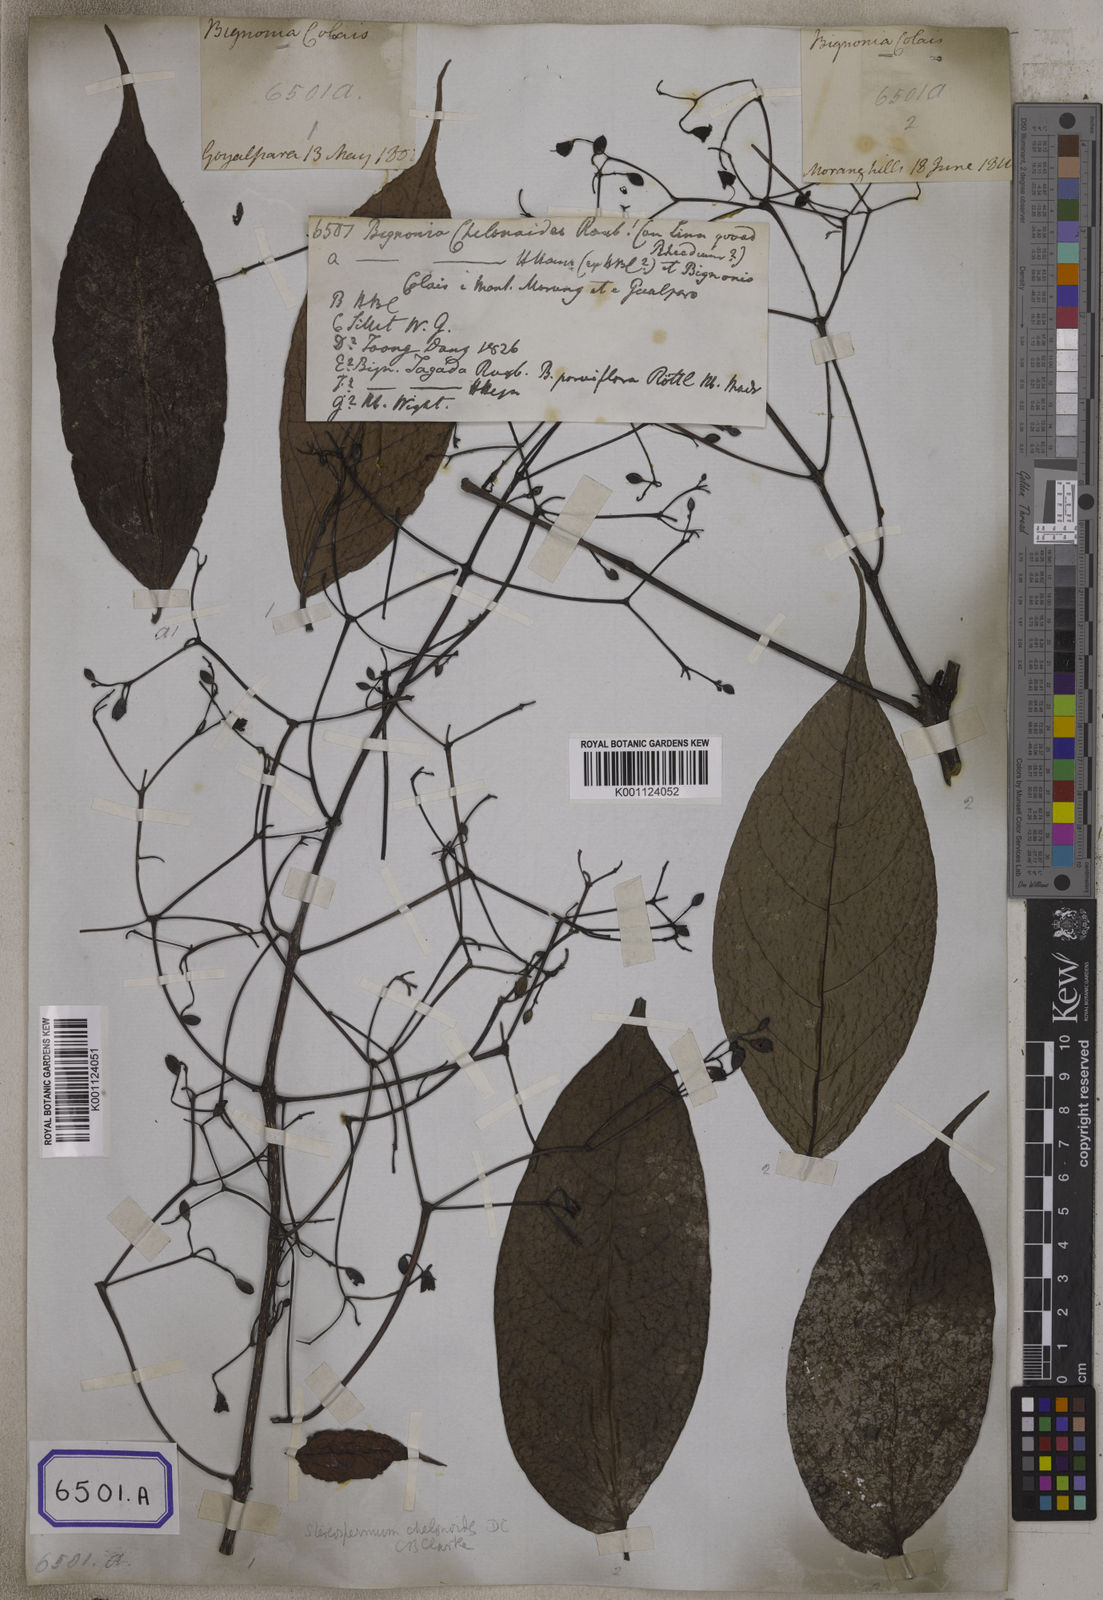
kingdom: Plantae
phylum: Tracheophyta
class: Magnoliopsida
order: Lamiales
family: Bignoniaceae
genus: Stereospermum
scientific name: Stereospermum chelonoides
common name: Fragrant padritree
